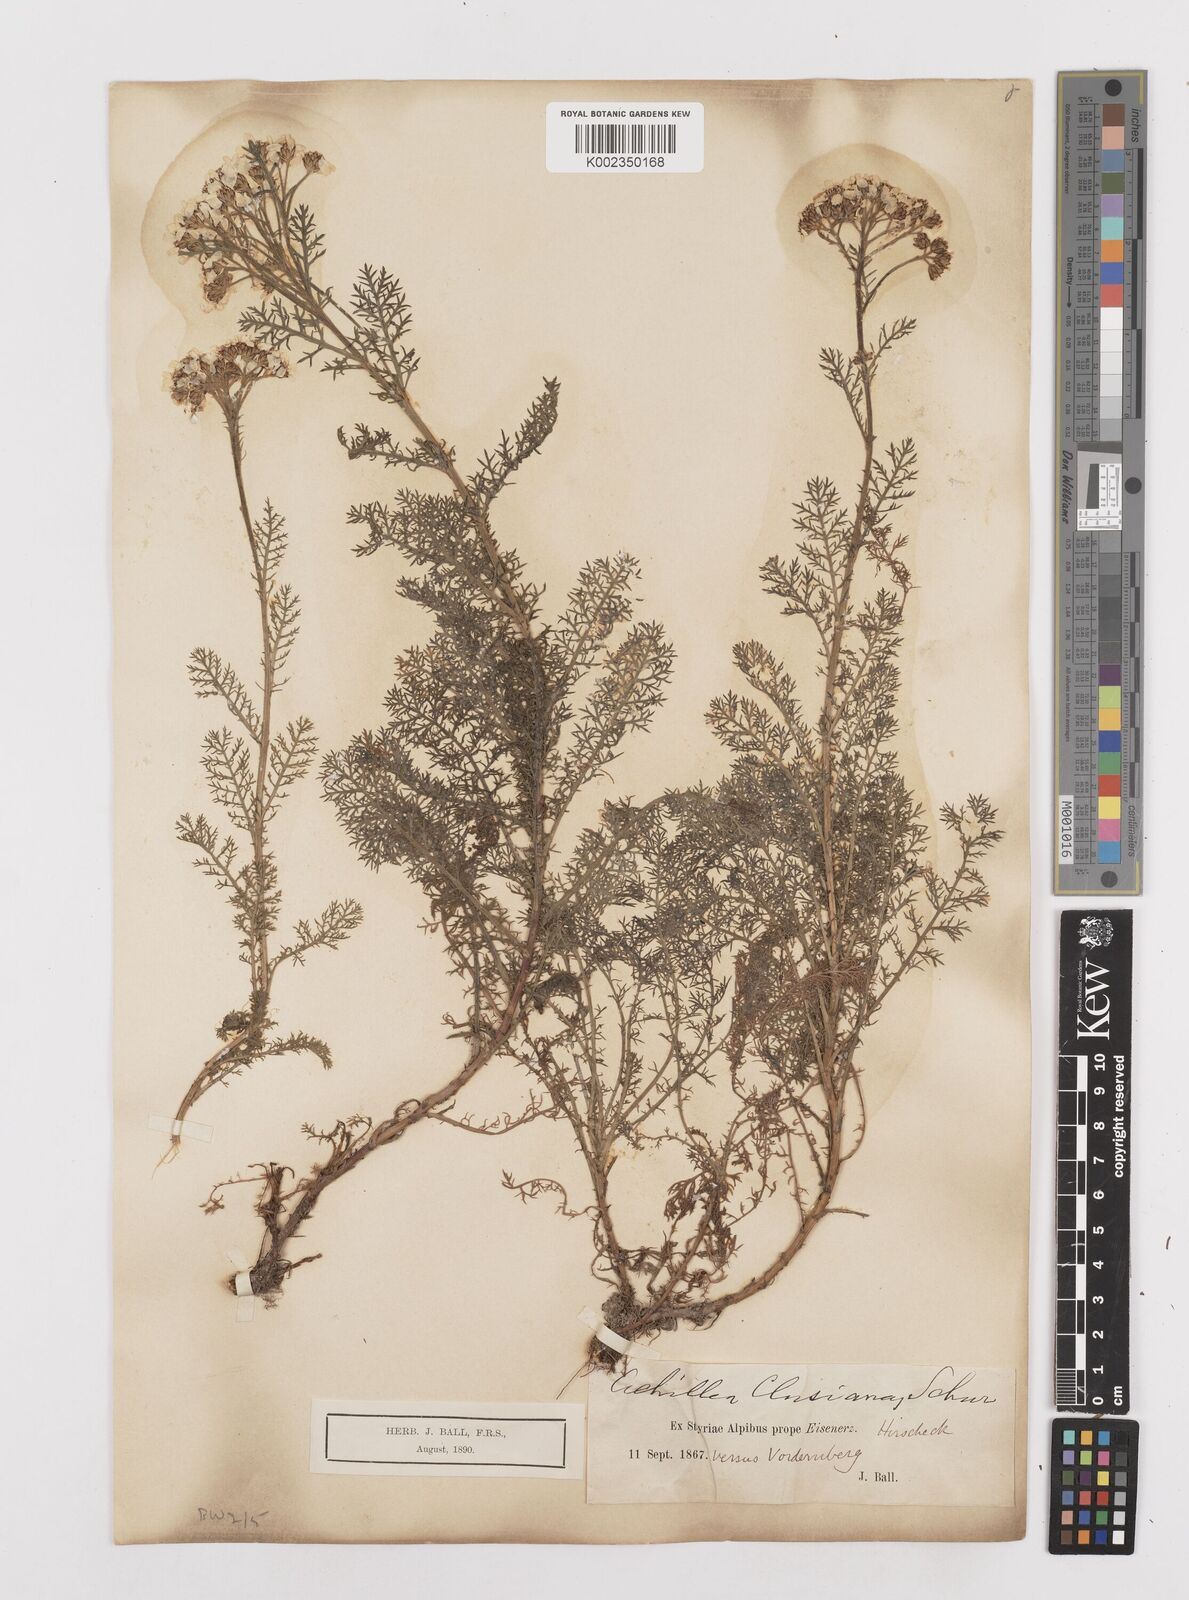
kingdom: Plantae
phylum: Tracheophyta
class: Magnoliopsida
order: Asterales
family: Asteraceae
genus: Achillea
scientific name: Achillea clusiana
